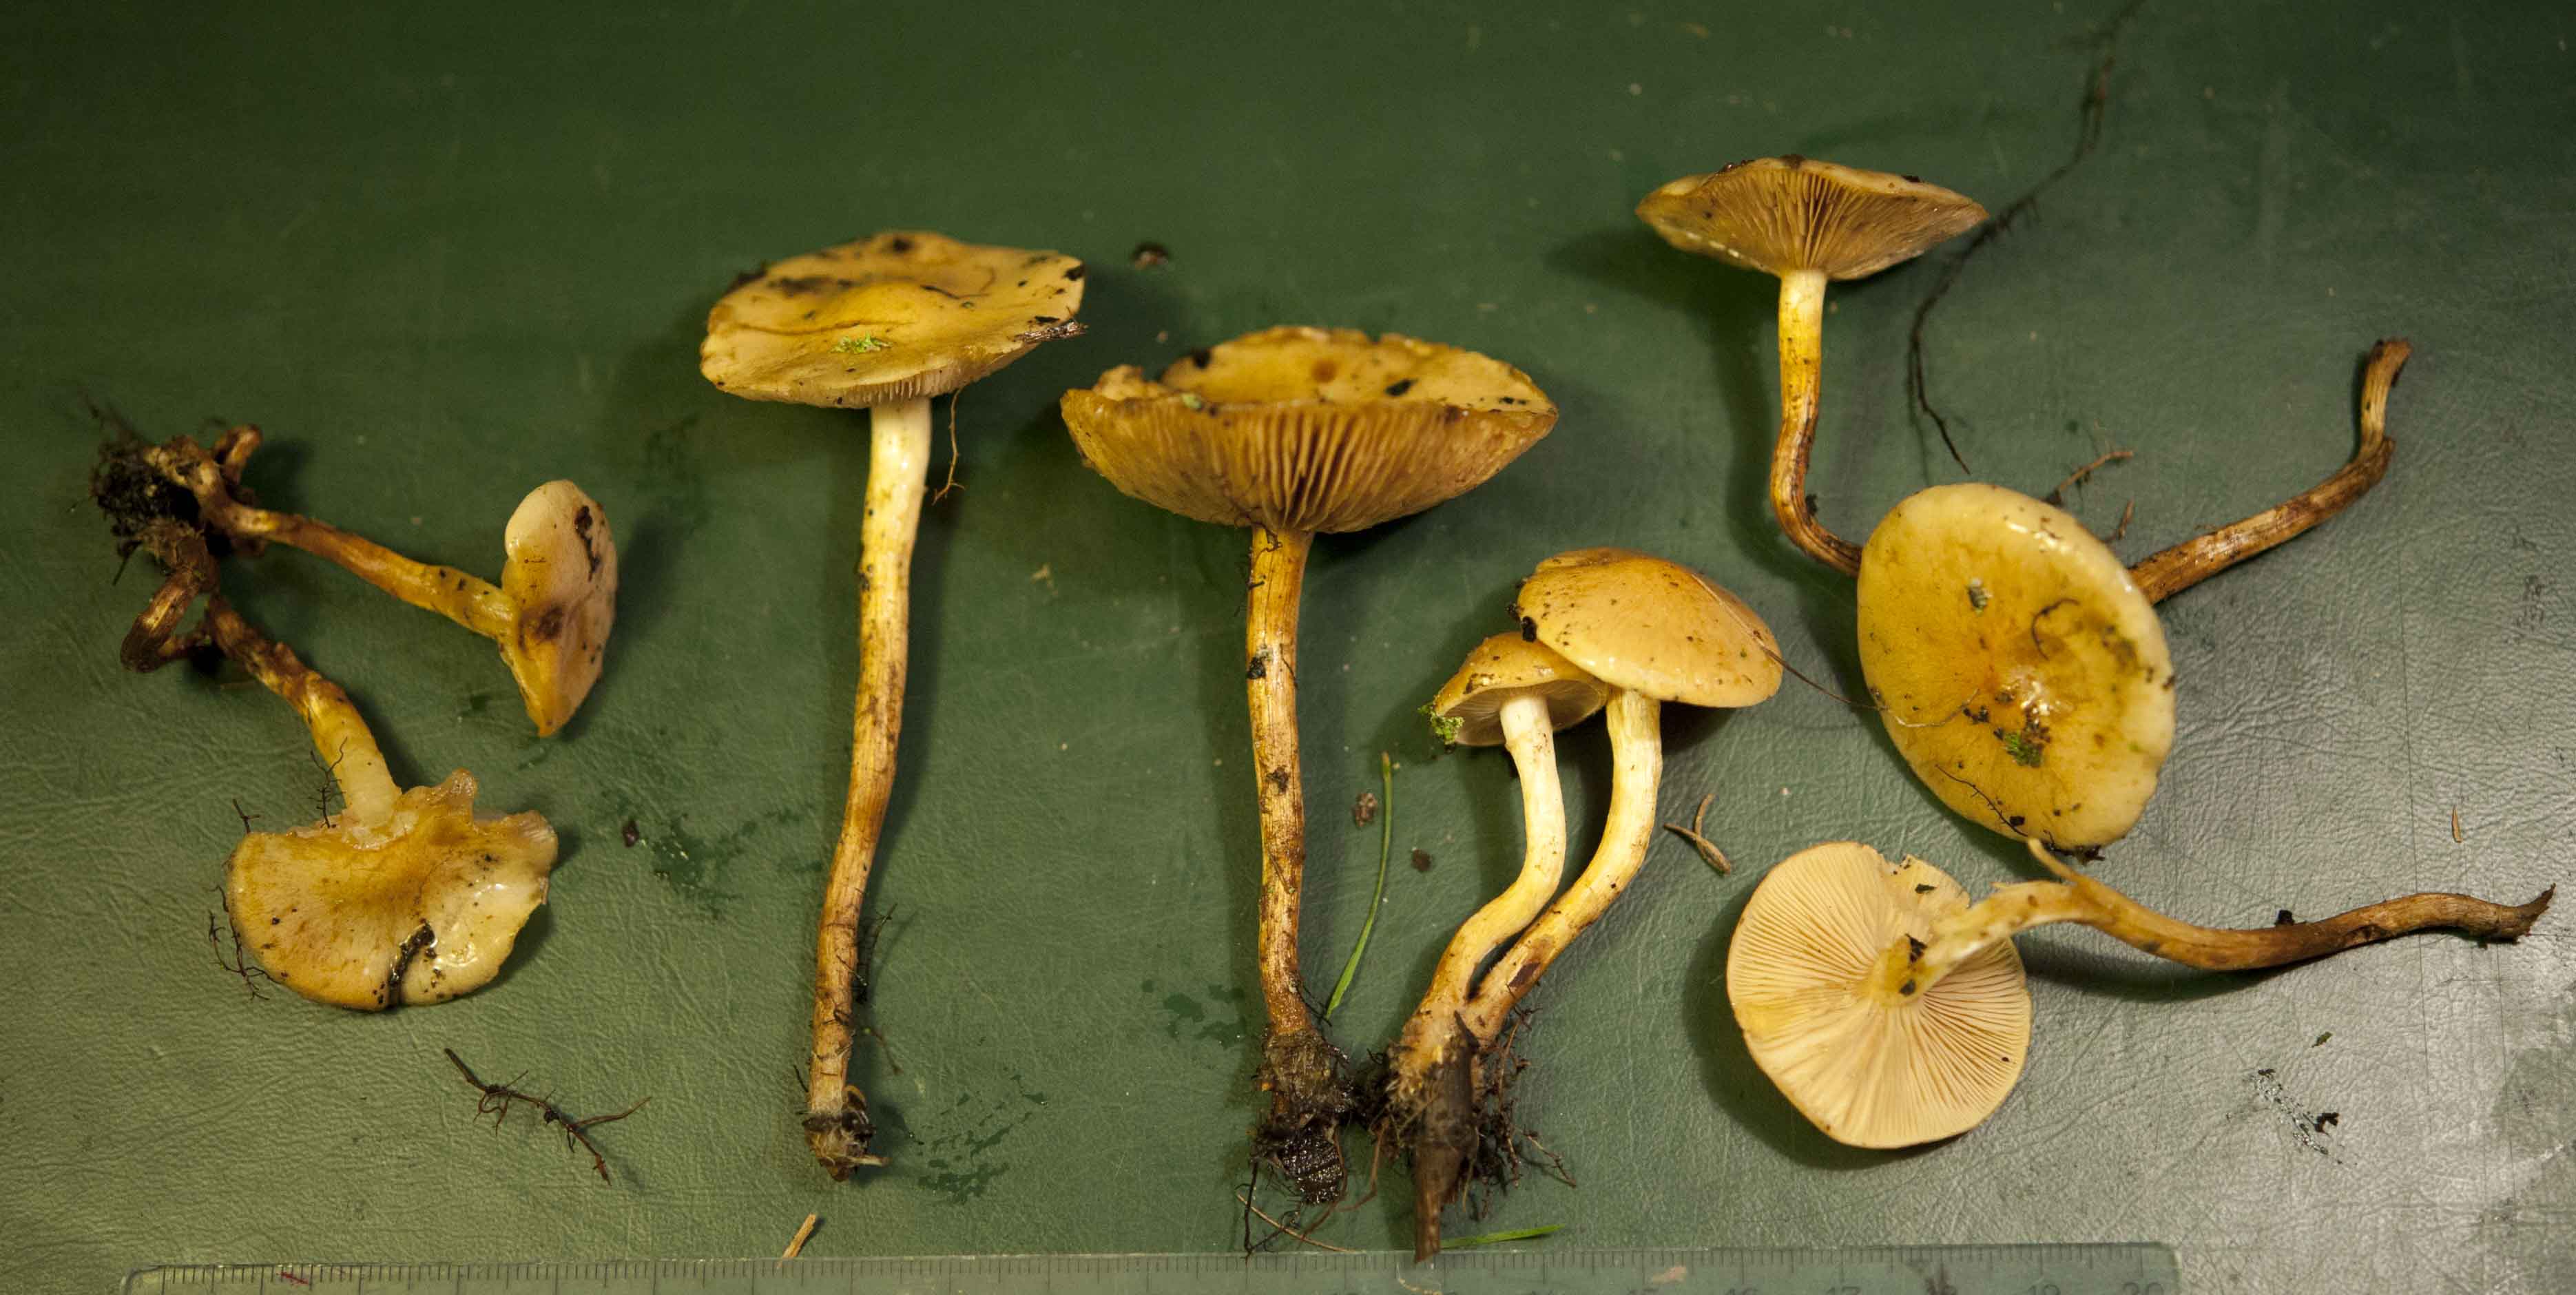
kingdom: Fungi
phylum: Basidiomycota
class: Agaricomycetes
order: Agaricales
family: Strophariaceae
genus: Pholiota
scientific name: Pholiota conissans
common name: pile-skælhat
